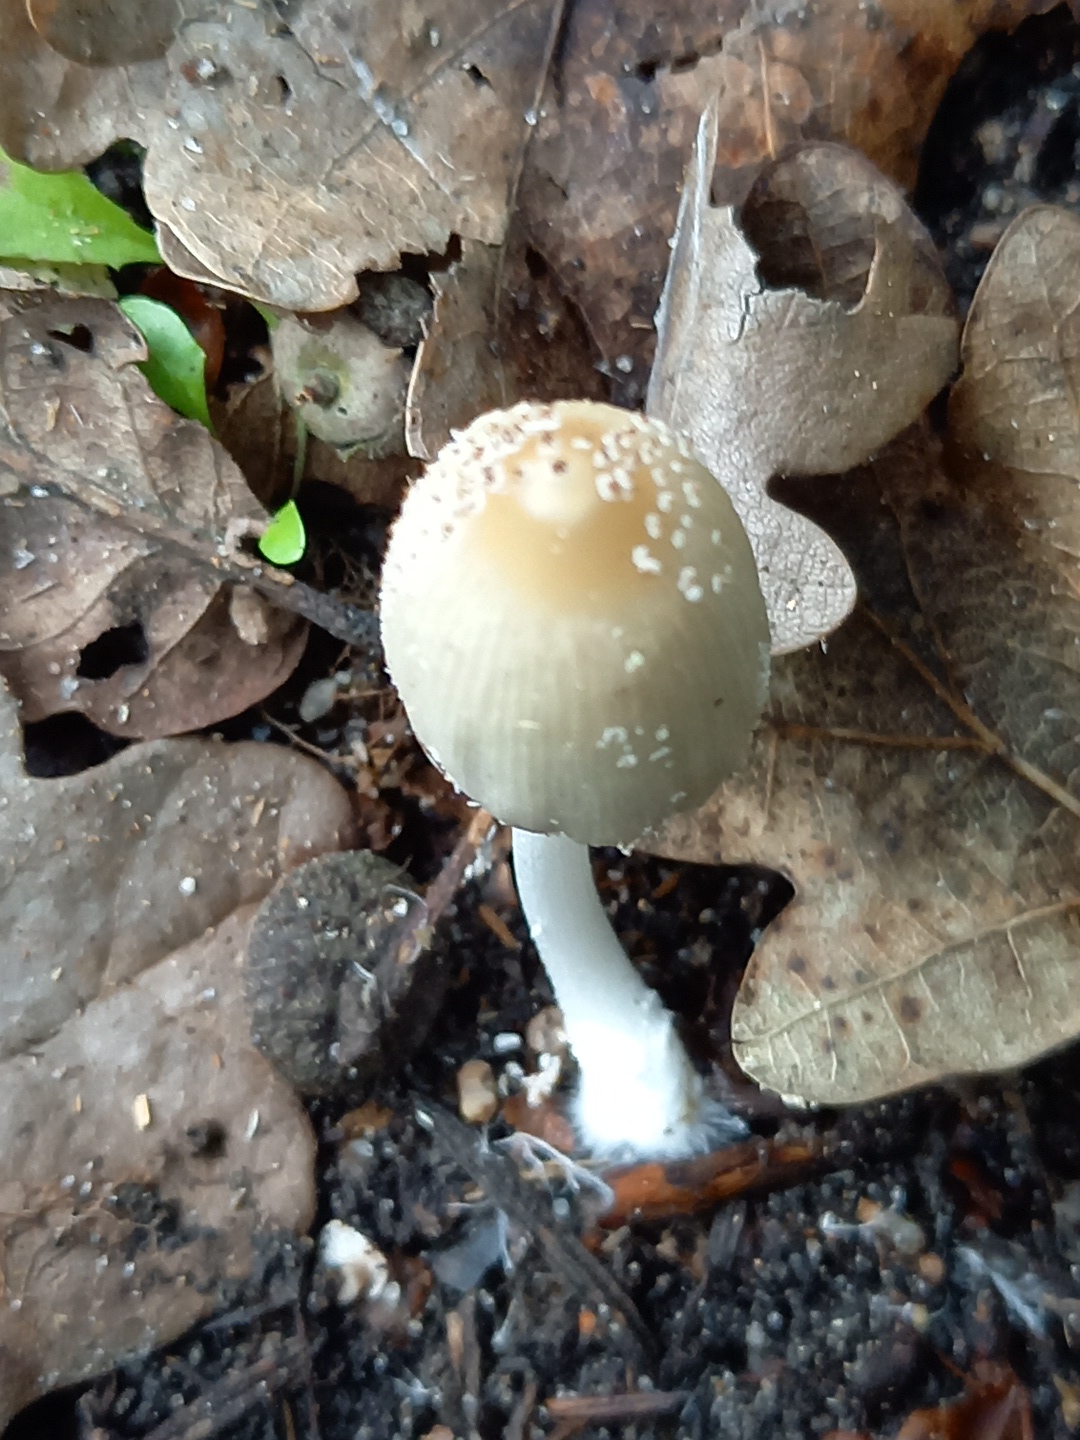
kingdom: Fungi
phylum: Basidiomycota
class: Agaricomycetes
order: Agaricales
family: Psathyrellaceae
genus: Coprinellus
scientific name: Coprinellus
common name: blækhat
